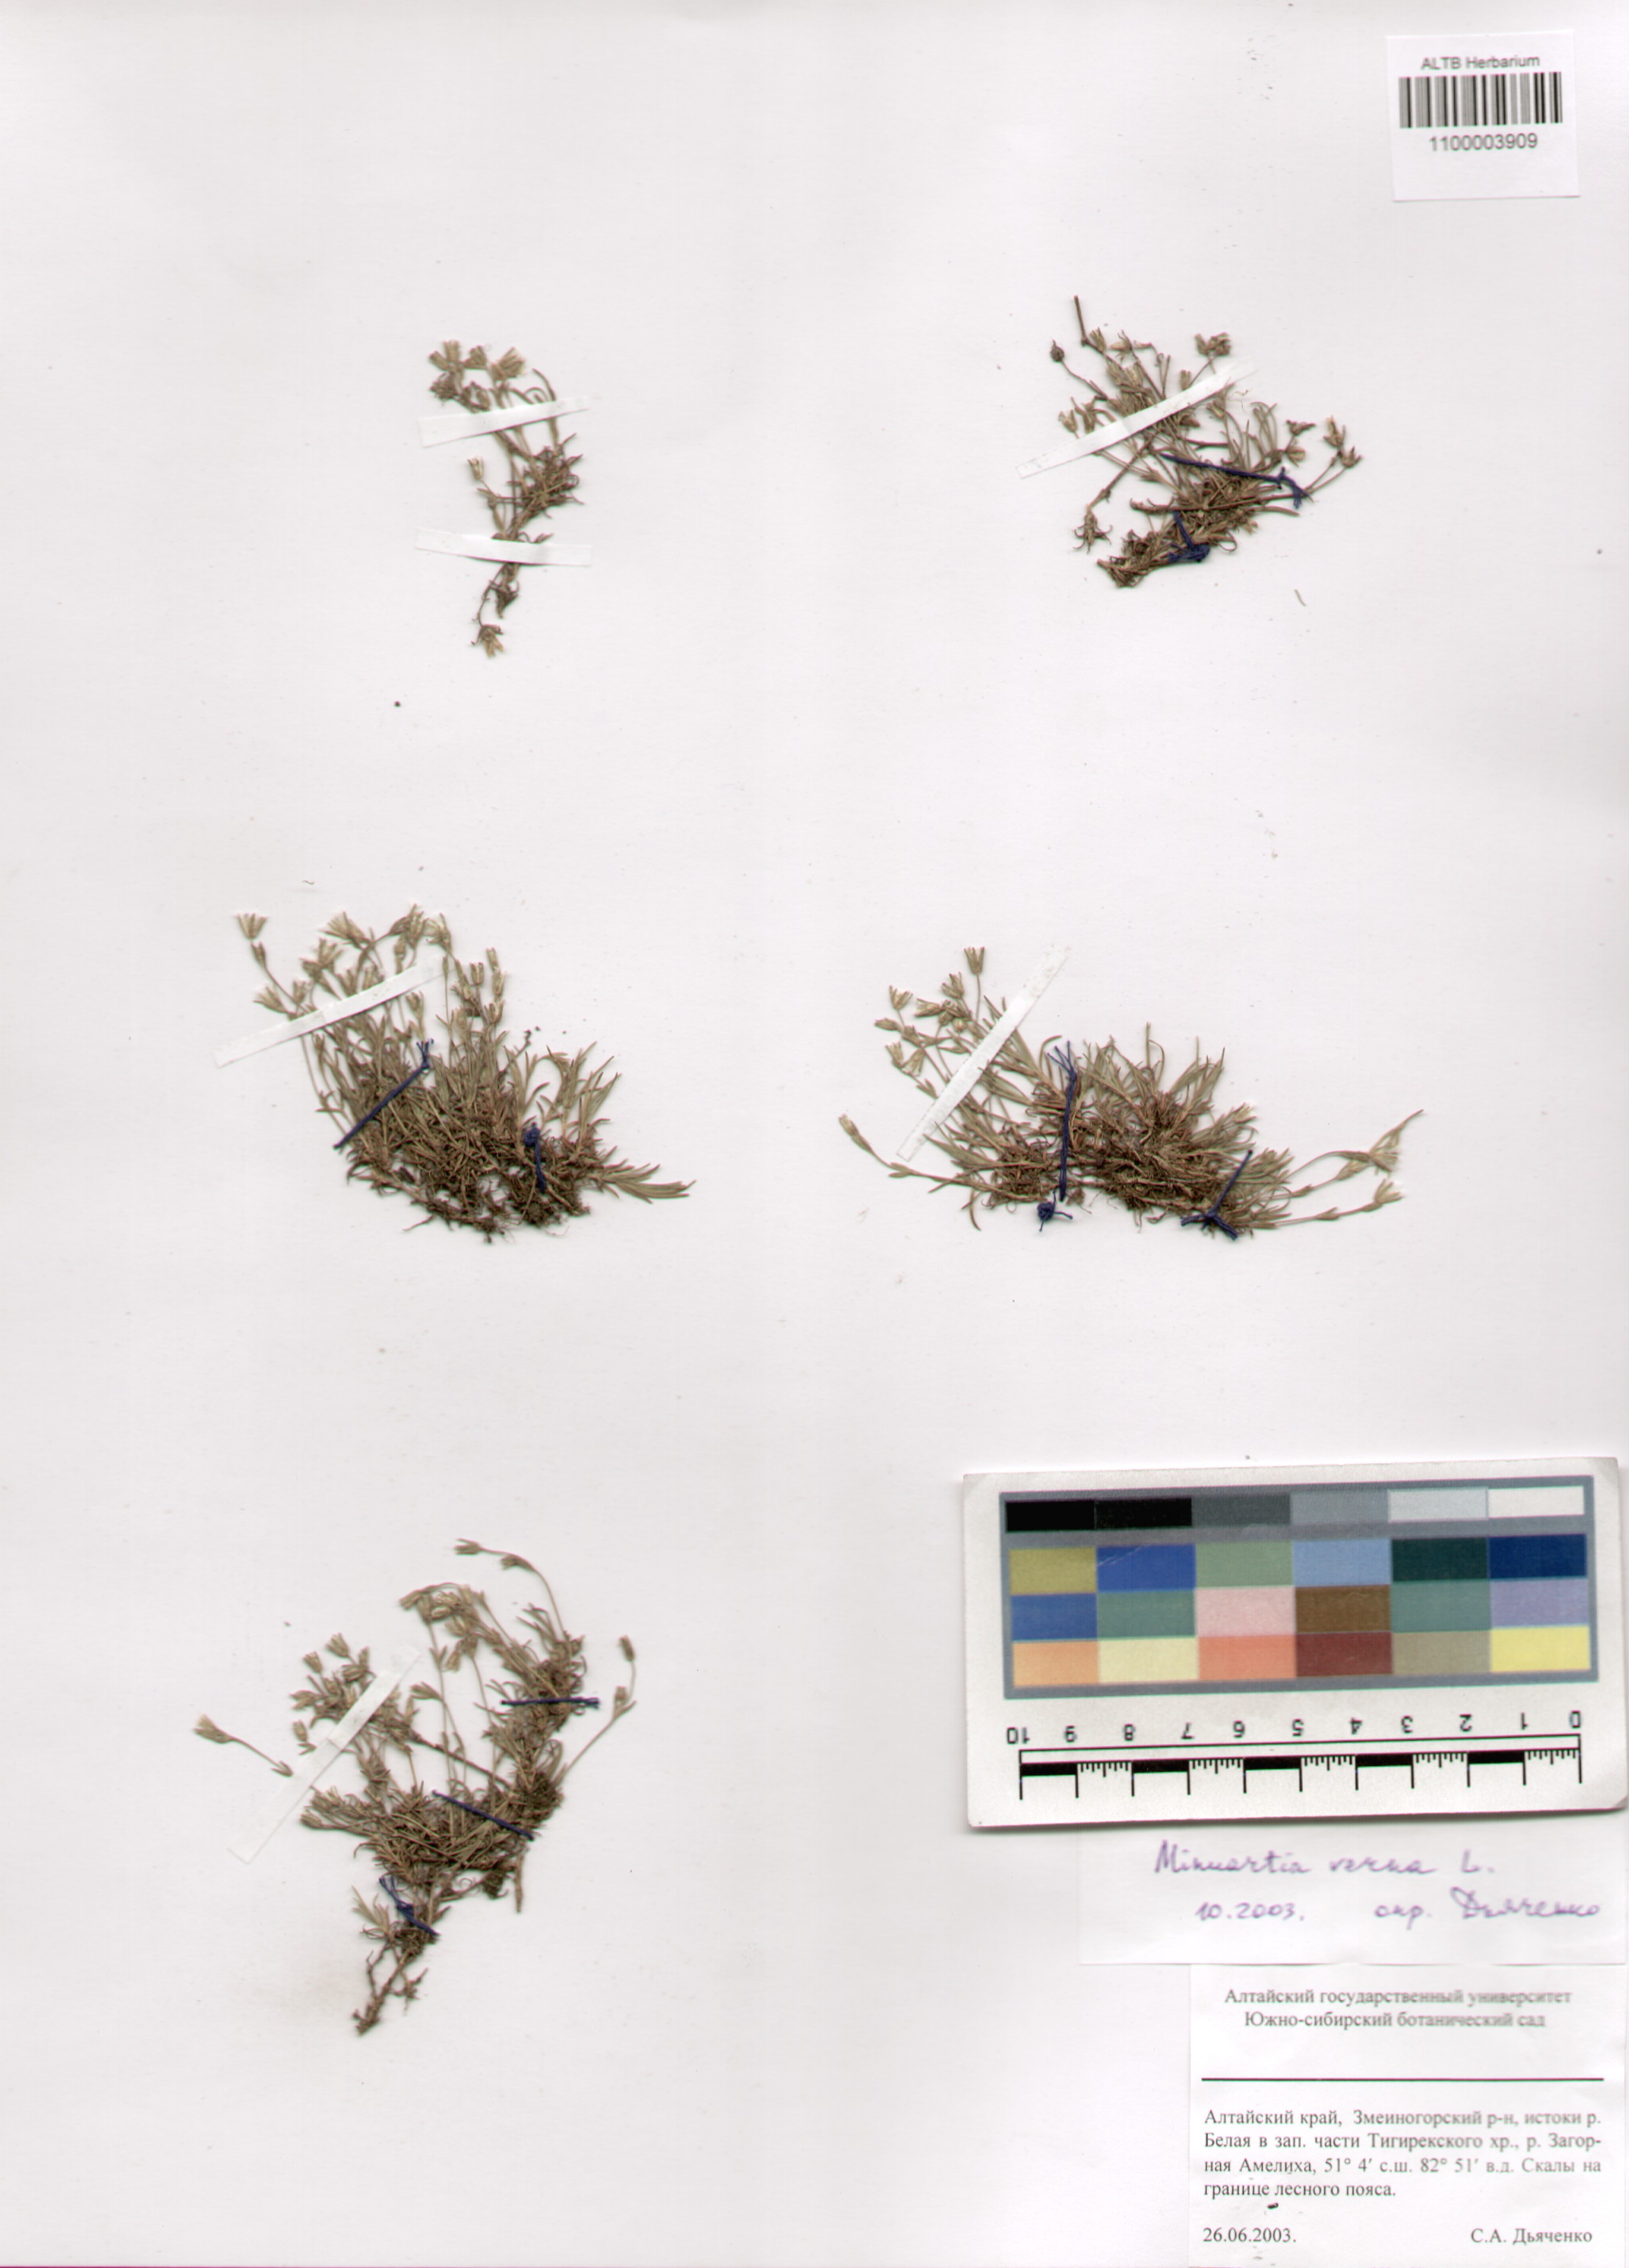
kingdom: Plantae
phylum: Tracheophyta
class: Magnoliopsida
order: Caryophyllales
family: Caryophyllaceae
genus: Sabulina
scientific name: Sabulina verna
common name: Spring sandwort
